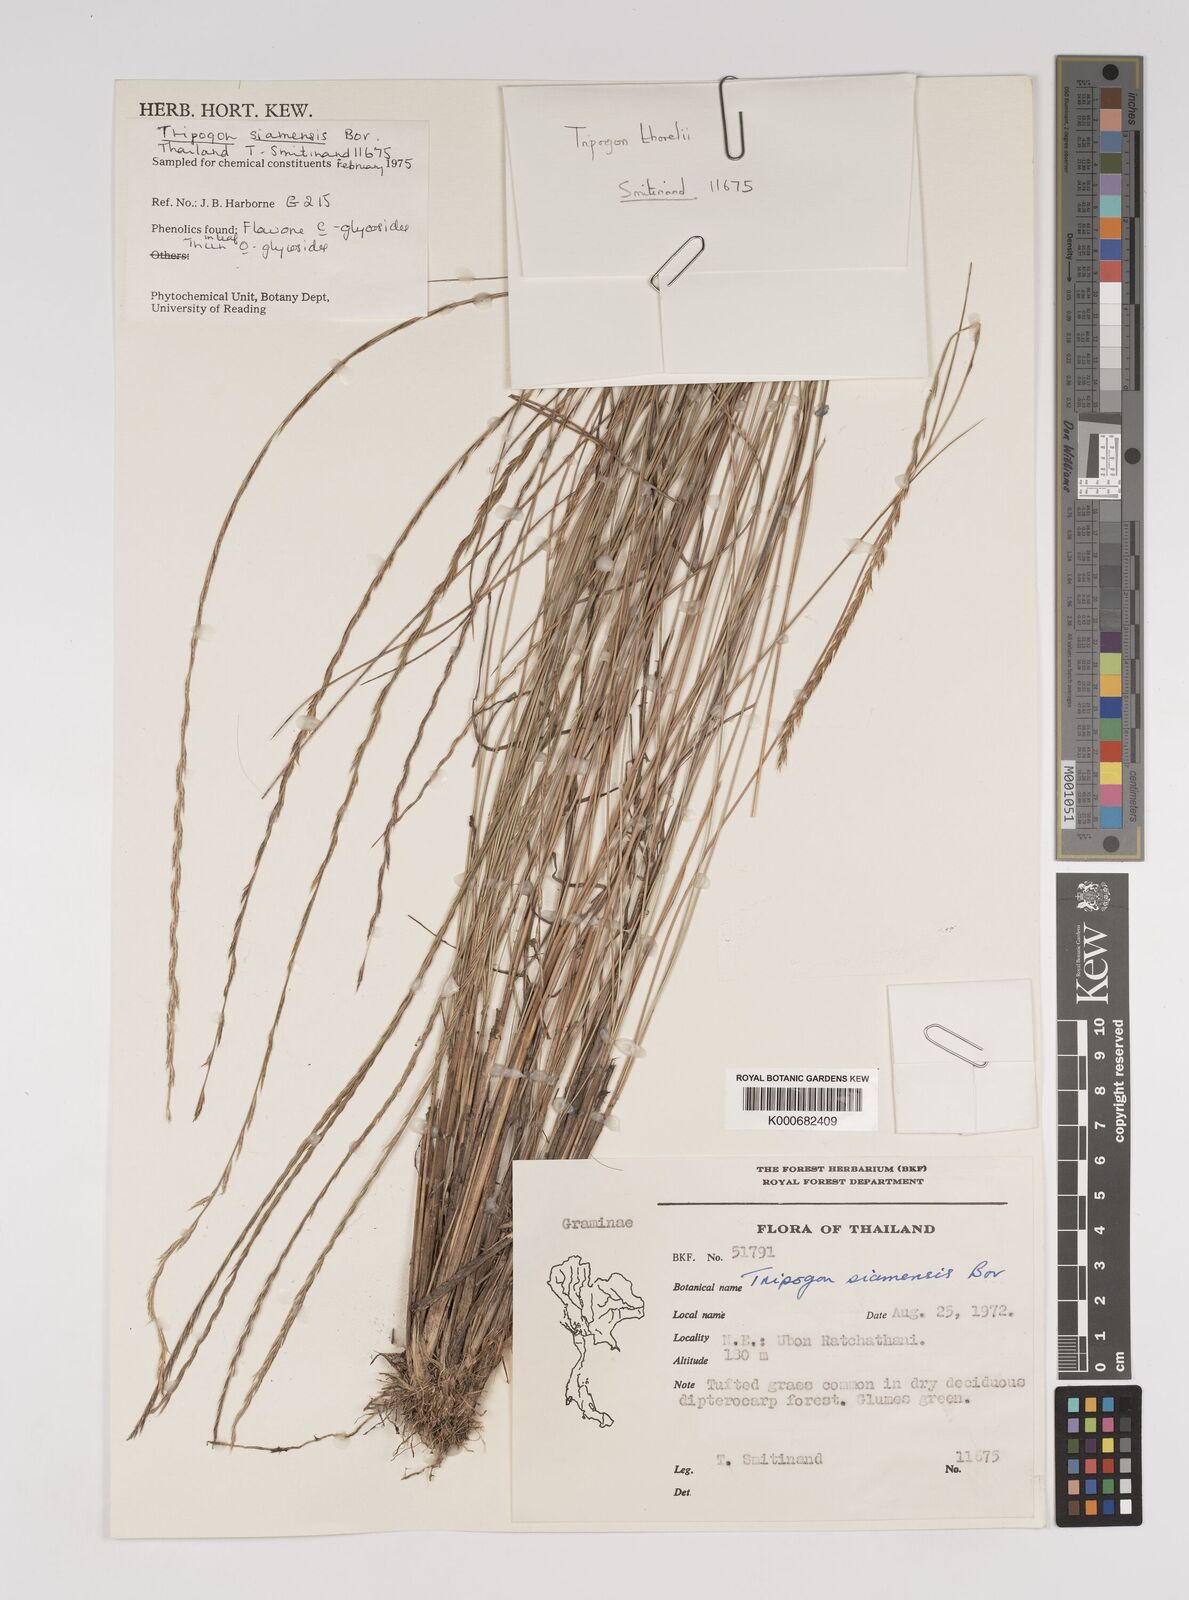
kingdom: Plantae
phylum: Tracheophyta
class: Liliopsida
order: Poales
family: Poaceae
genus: Tripogon
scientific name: Tripogon siamensis
